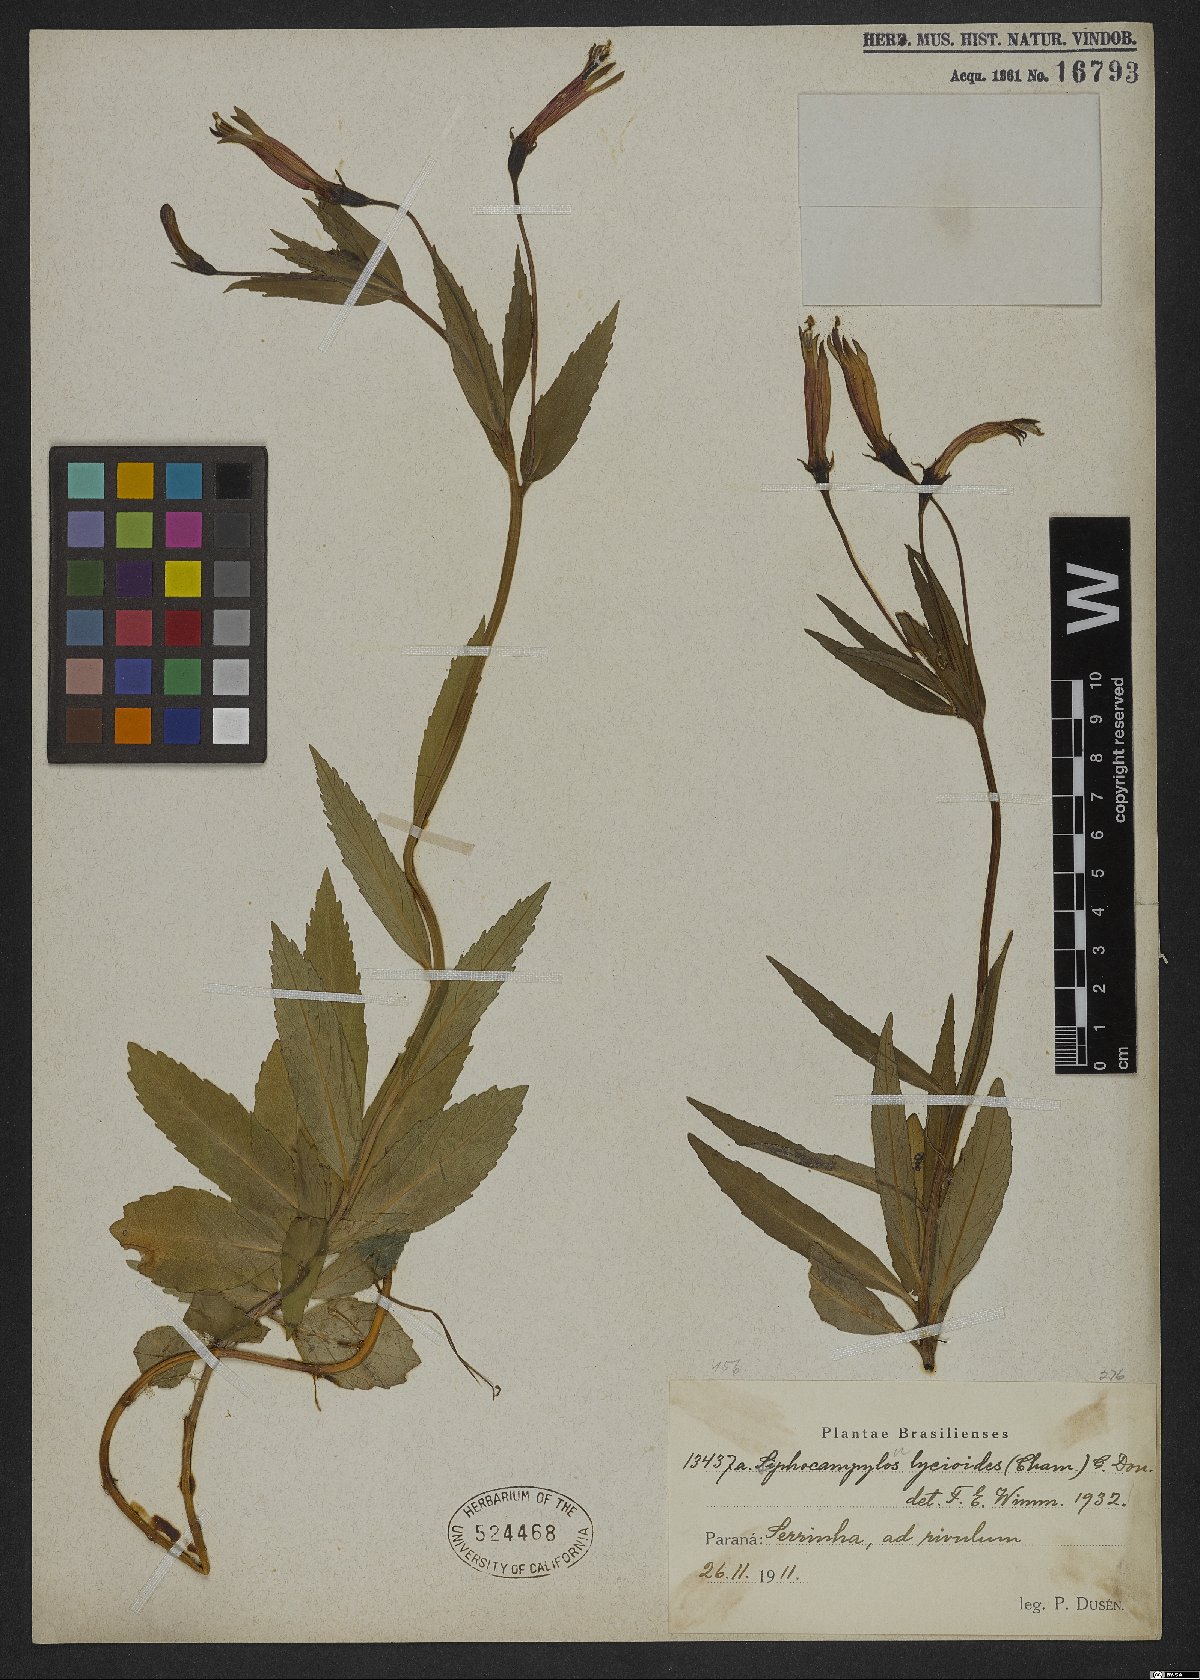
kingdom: Plantae
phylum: Tracheophyta
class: Magnoliopsida
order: Asterales
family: Campanulaceae
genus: Siphocampylus
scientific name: Siphocampylus lycioides
